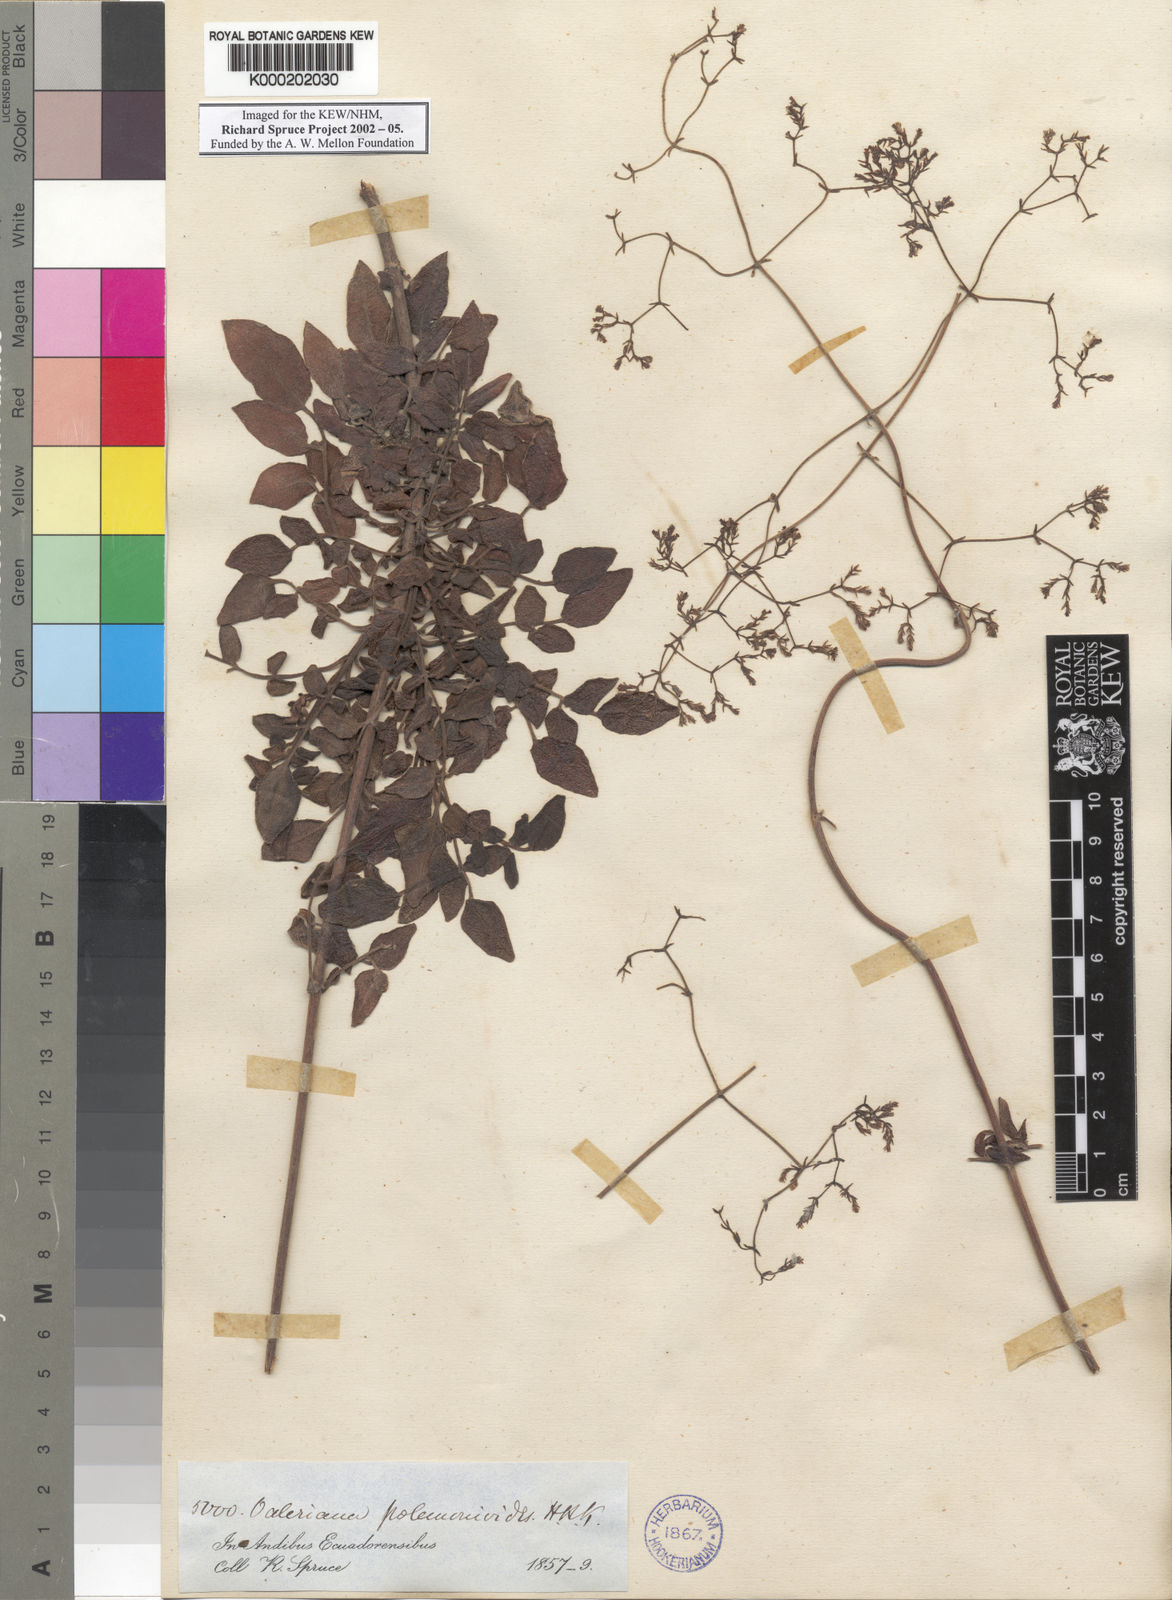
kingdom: Plantae
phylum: Tracheophyta
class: Magnoliopsida
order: Dipsacales
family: Caprifoliaceae
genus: Valeriana
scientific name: Valeriana decussata
